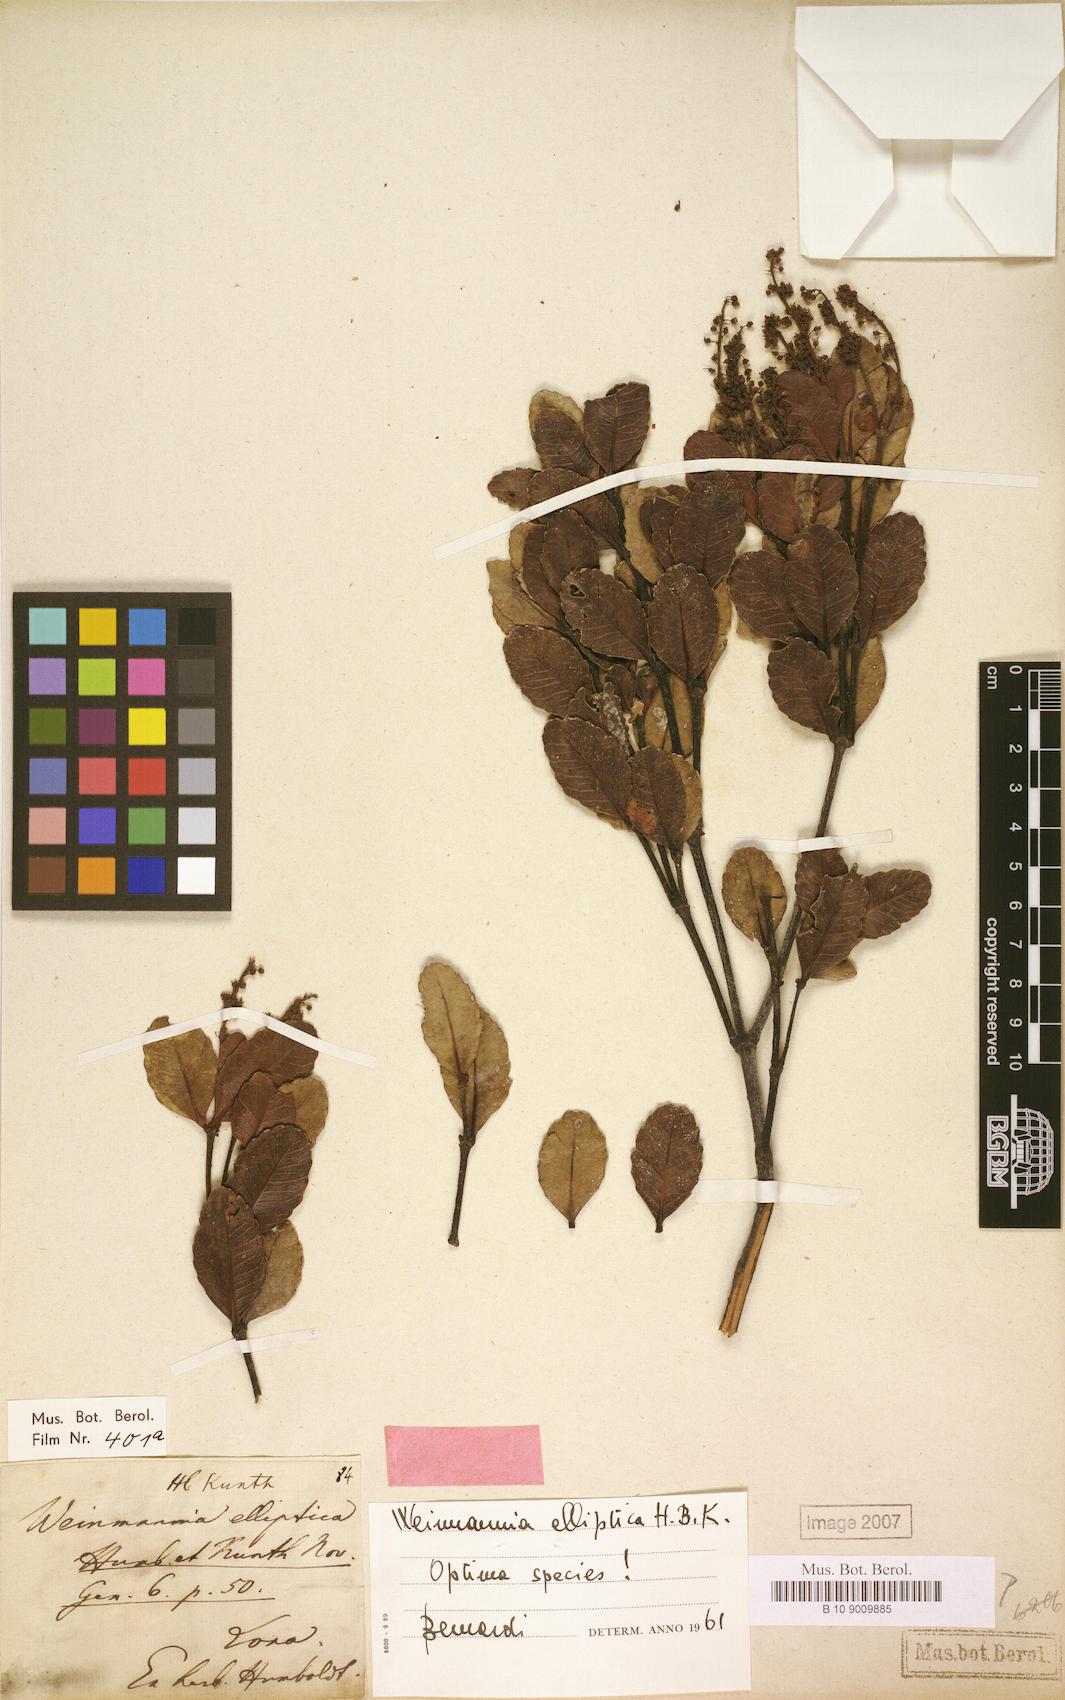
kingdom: Plantae
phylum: Tracheophyta
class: Magnoliopsida
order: Oxalidales
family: Cunoniaceae
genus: Weinmannia
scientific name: Weinmannia elliptica
